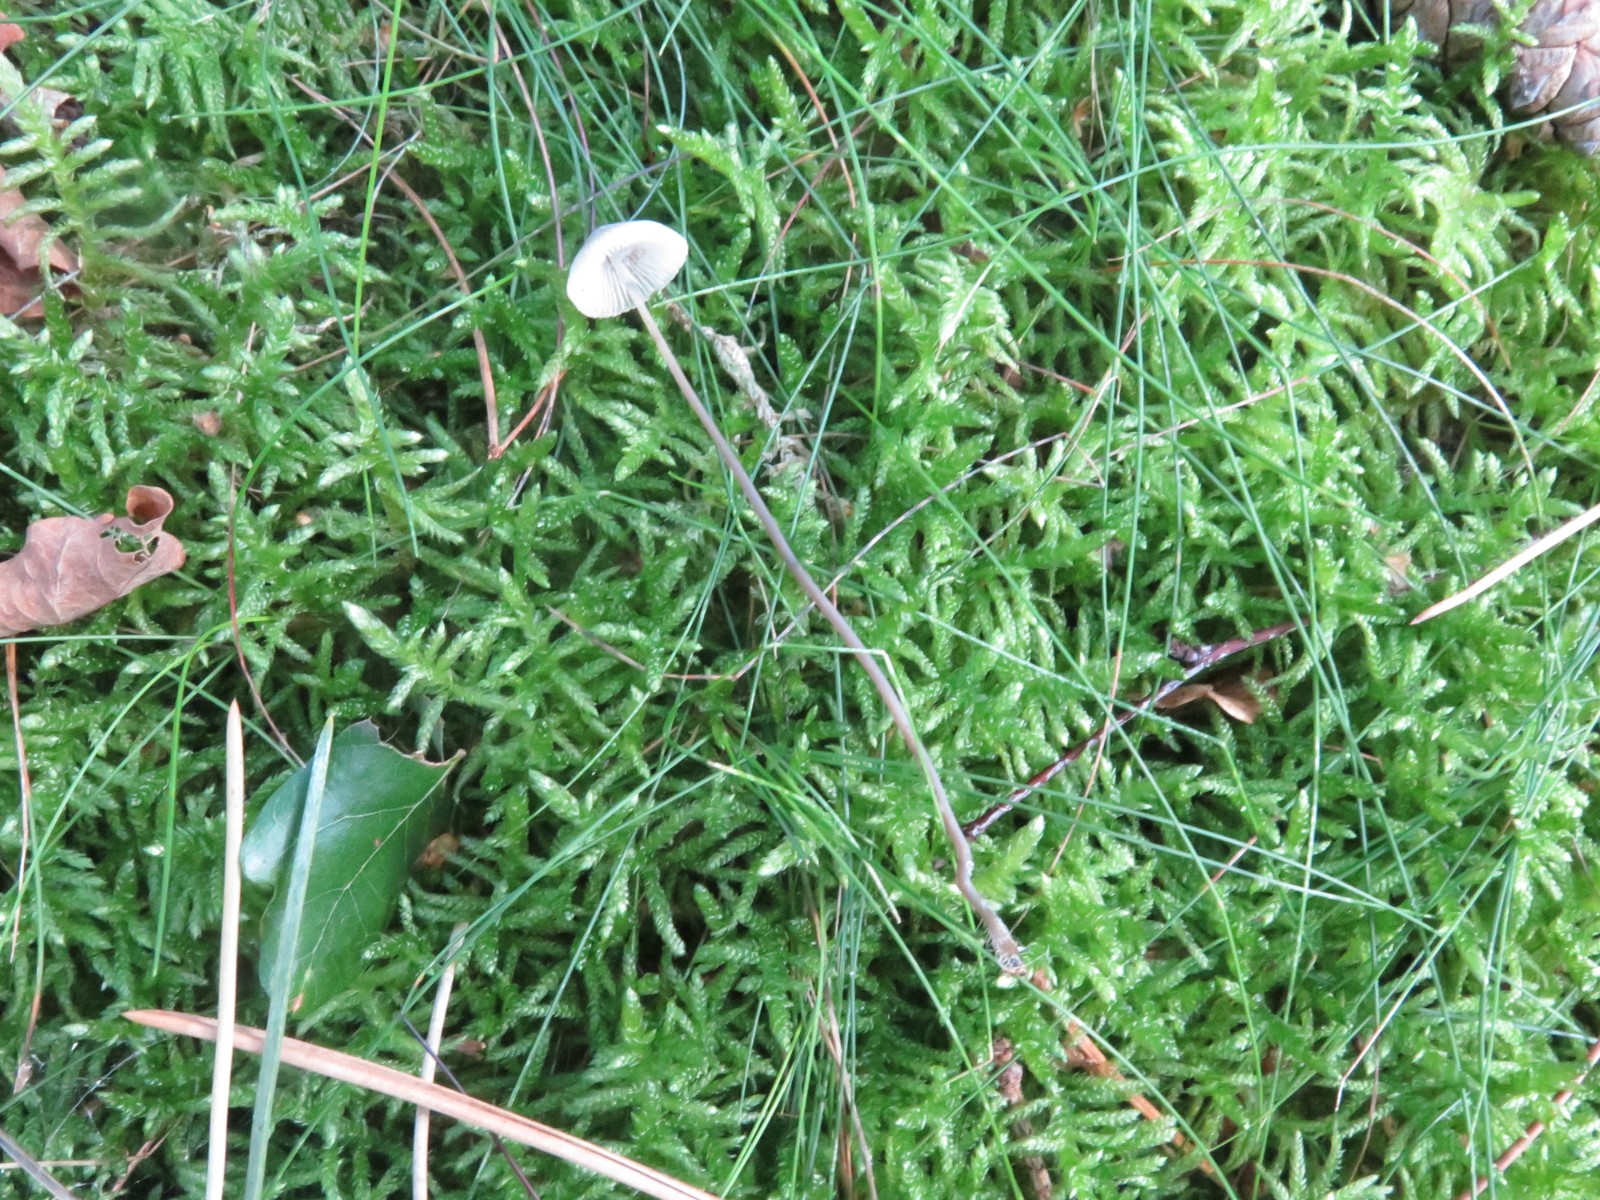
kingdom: Fungi
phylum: Basidiomycota
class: Agaricomycetes
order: Agaricales
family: Mycenaceae
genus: Mycena
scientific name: Mycena vitilis
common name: blankstokket huesvamp
